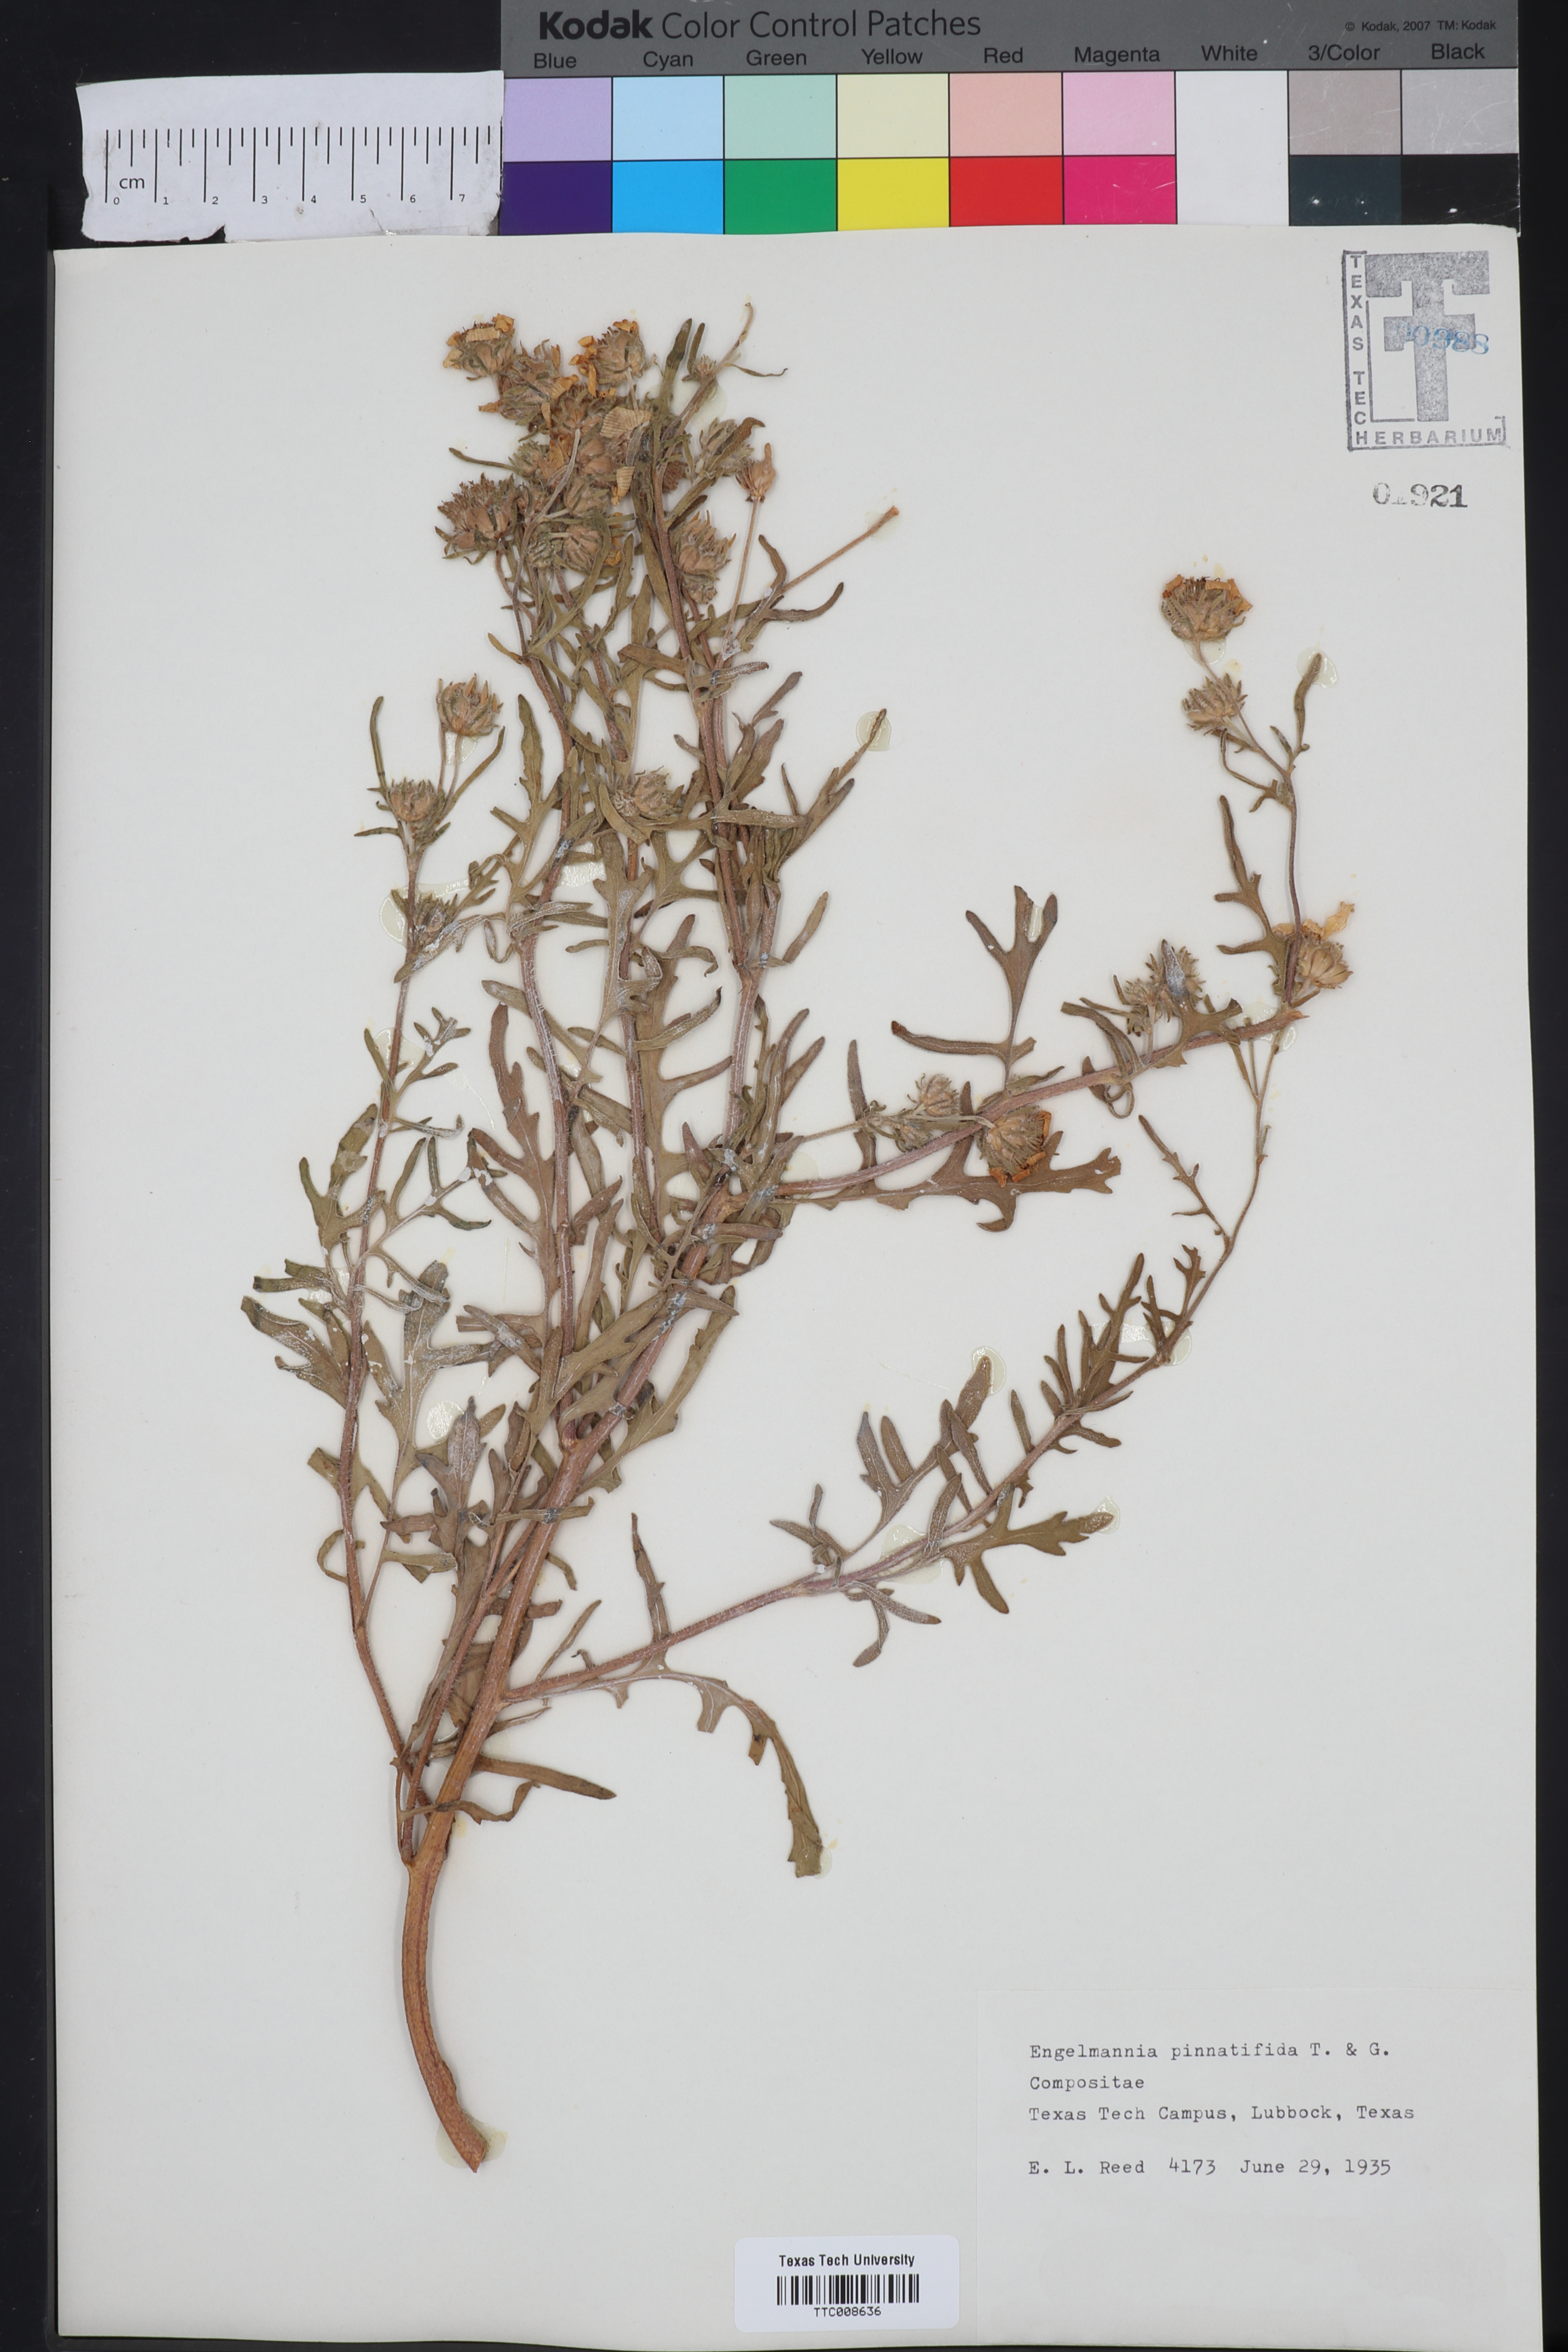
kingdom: Plantae
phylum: Tracheophyta
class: Magnoliopsida
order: Asterales
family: Asteraceae
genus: Engelmannia
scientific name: Engelmannia peristenia
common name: Engelmann's daisy
